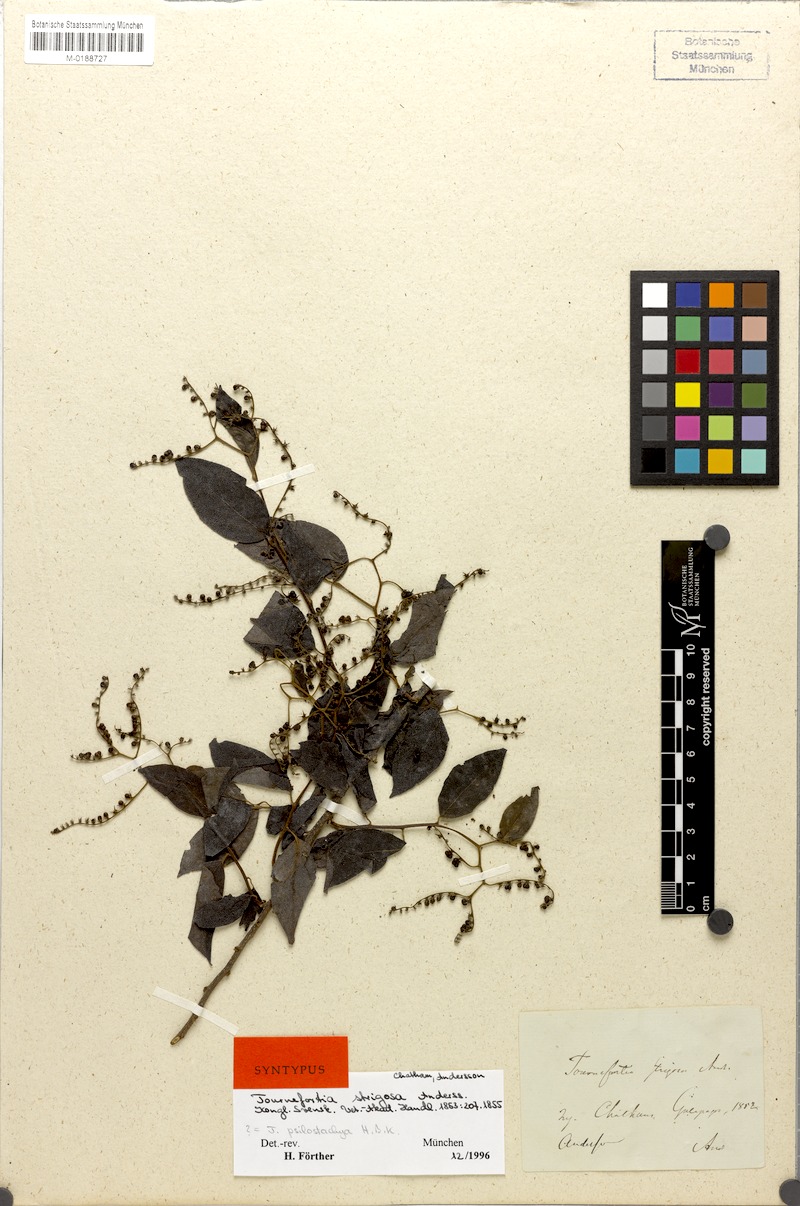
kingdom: Plantae
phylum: Tracheophyta
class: Magnoliopsida
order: Boraginales
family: Heliotropiaceae
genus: Myriopus
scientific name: Myriopus psilostachya
